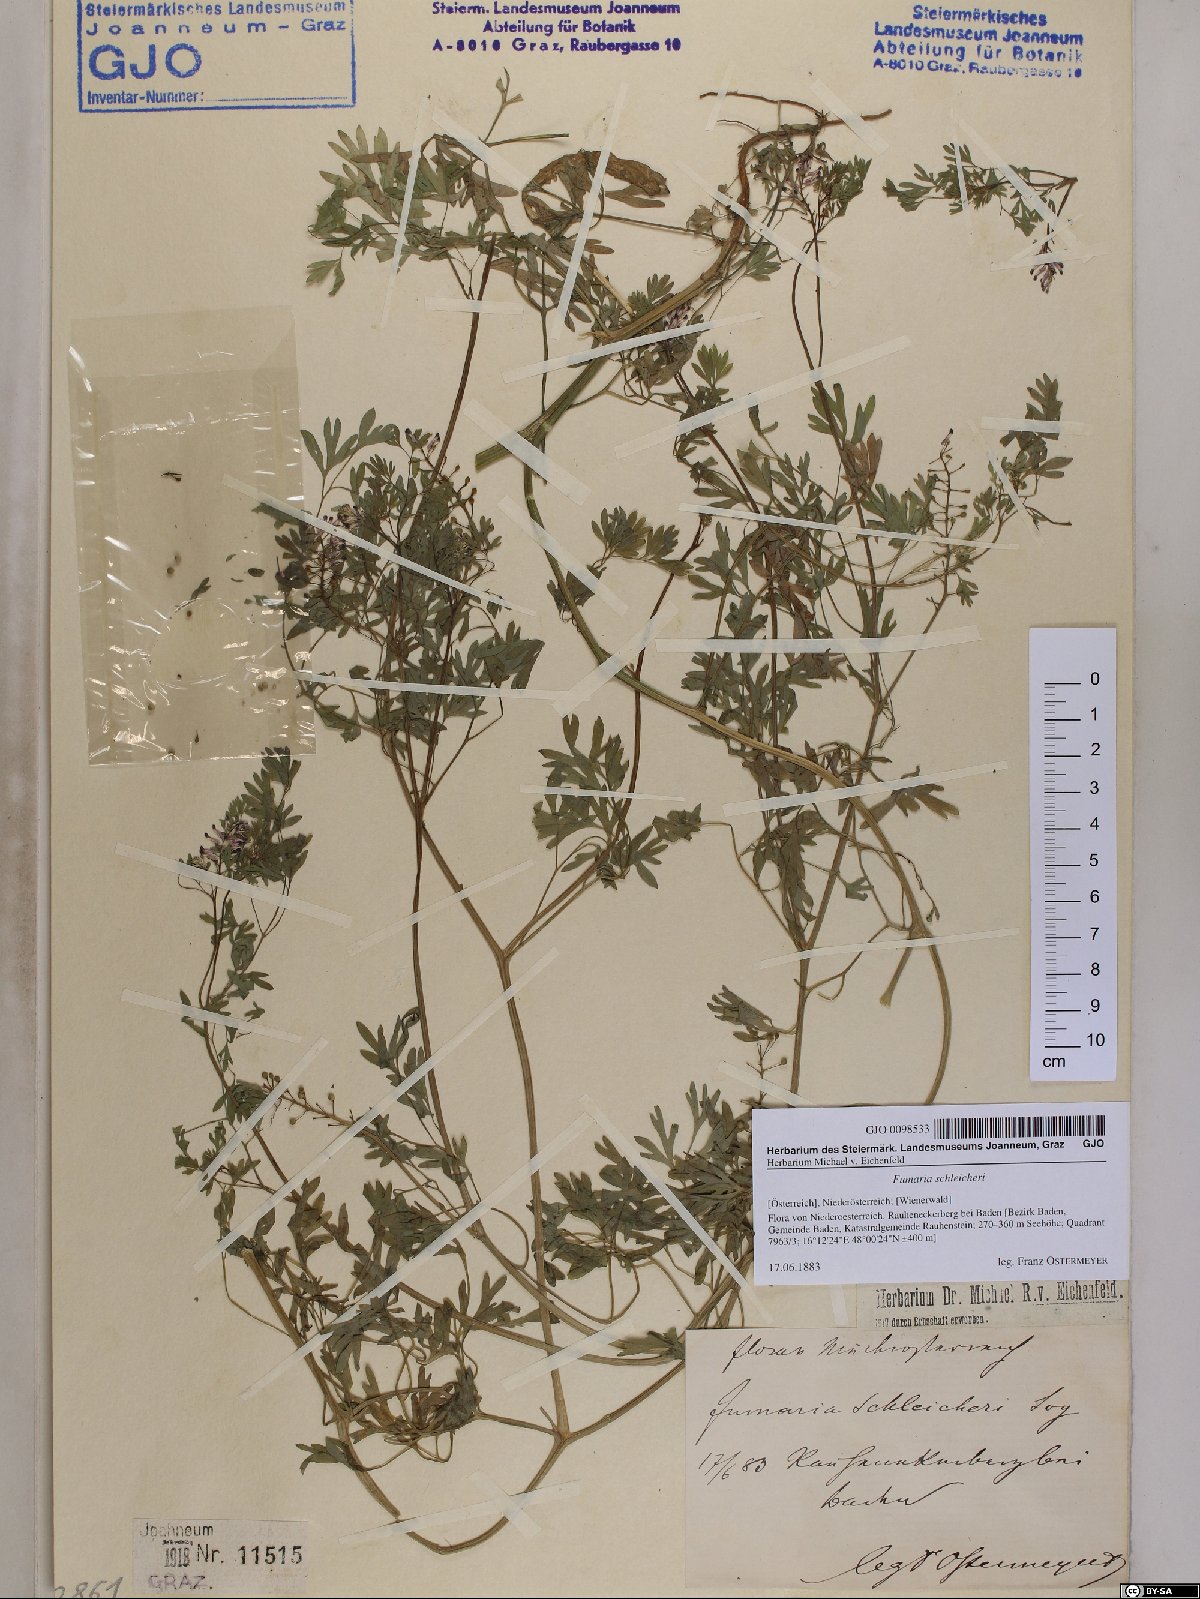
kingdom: Plantae
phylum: Tracheophyta
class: Magnoliopsida
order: Ranunculales
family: Papaveraceae
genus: Fumaria
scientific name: Fumaria schleicheri
